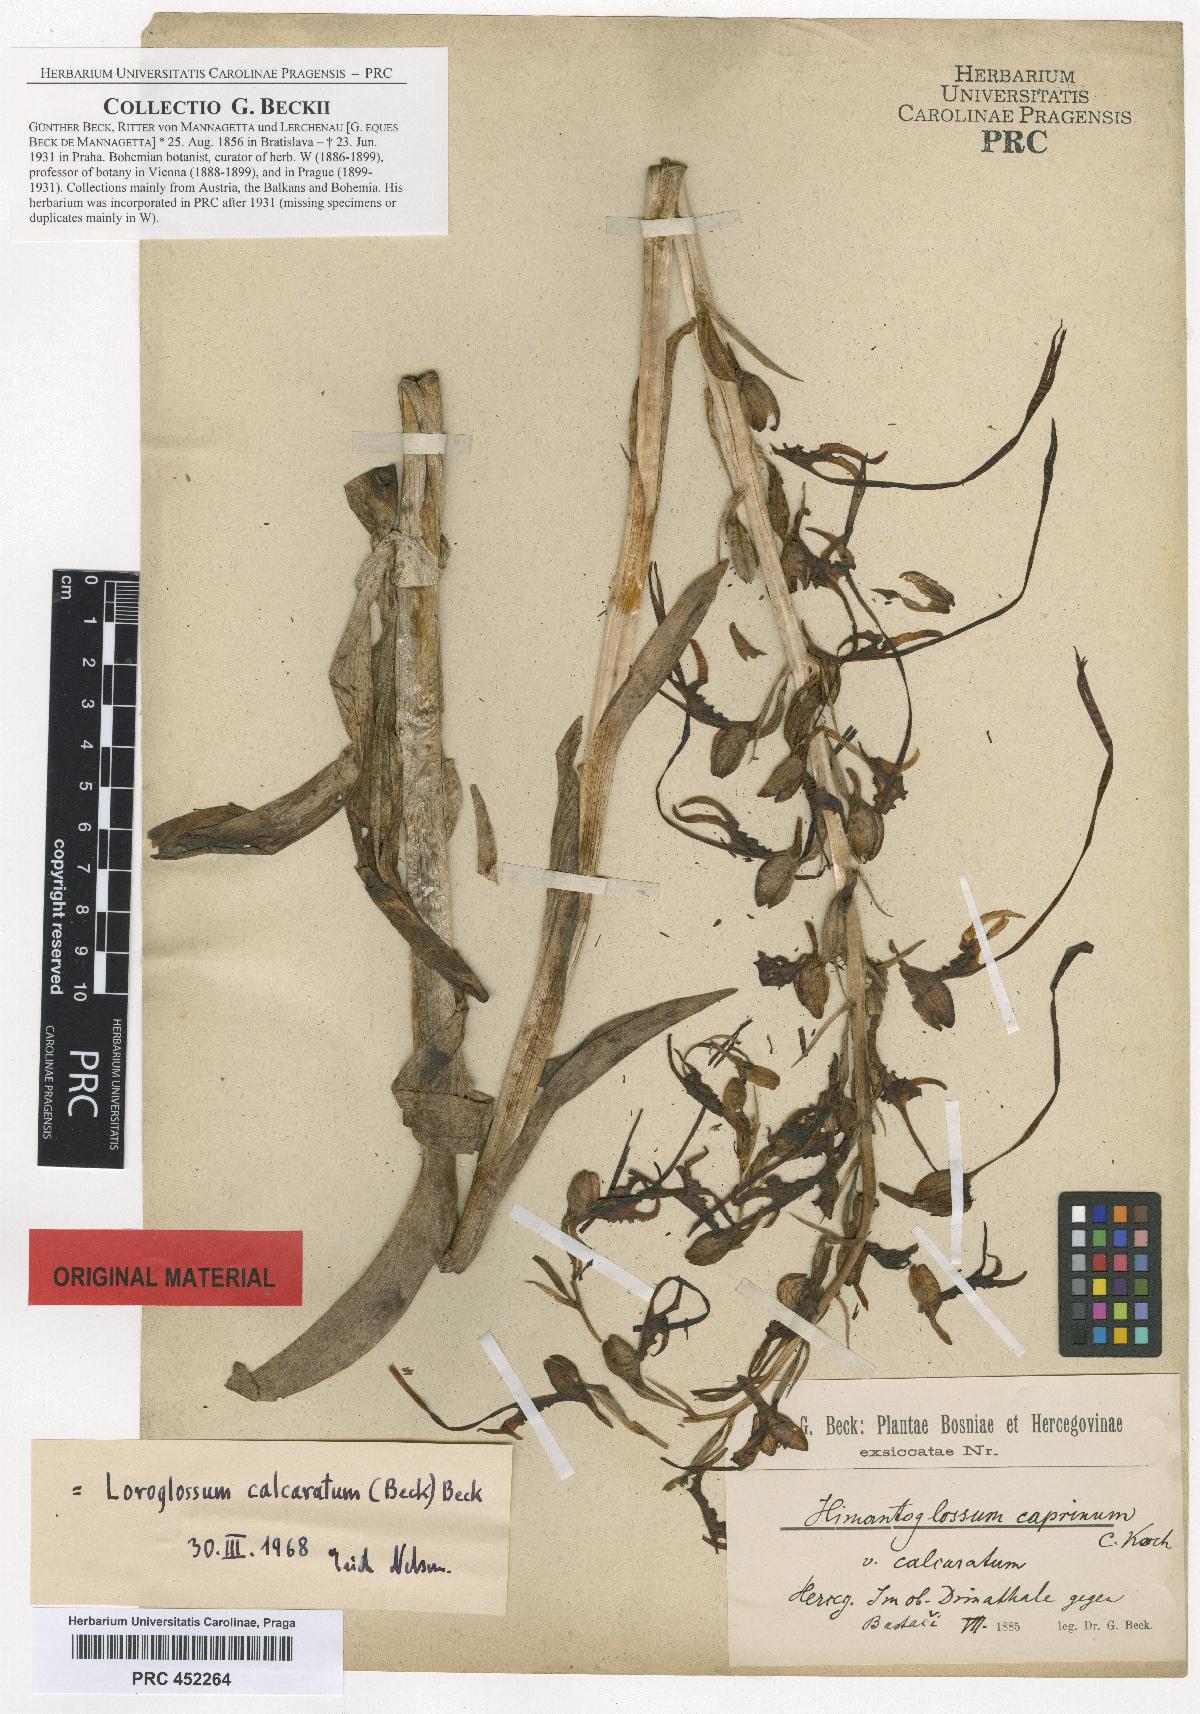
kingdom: Plantae
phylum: Tracheophyta
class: Liliopsida
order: Asparagales
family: Orchidaceae
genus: Himantoglossum
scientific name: Himantoglossum calcaratum
